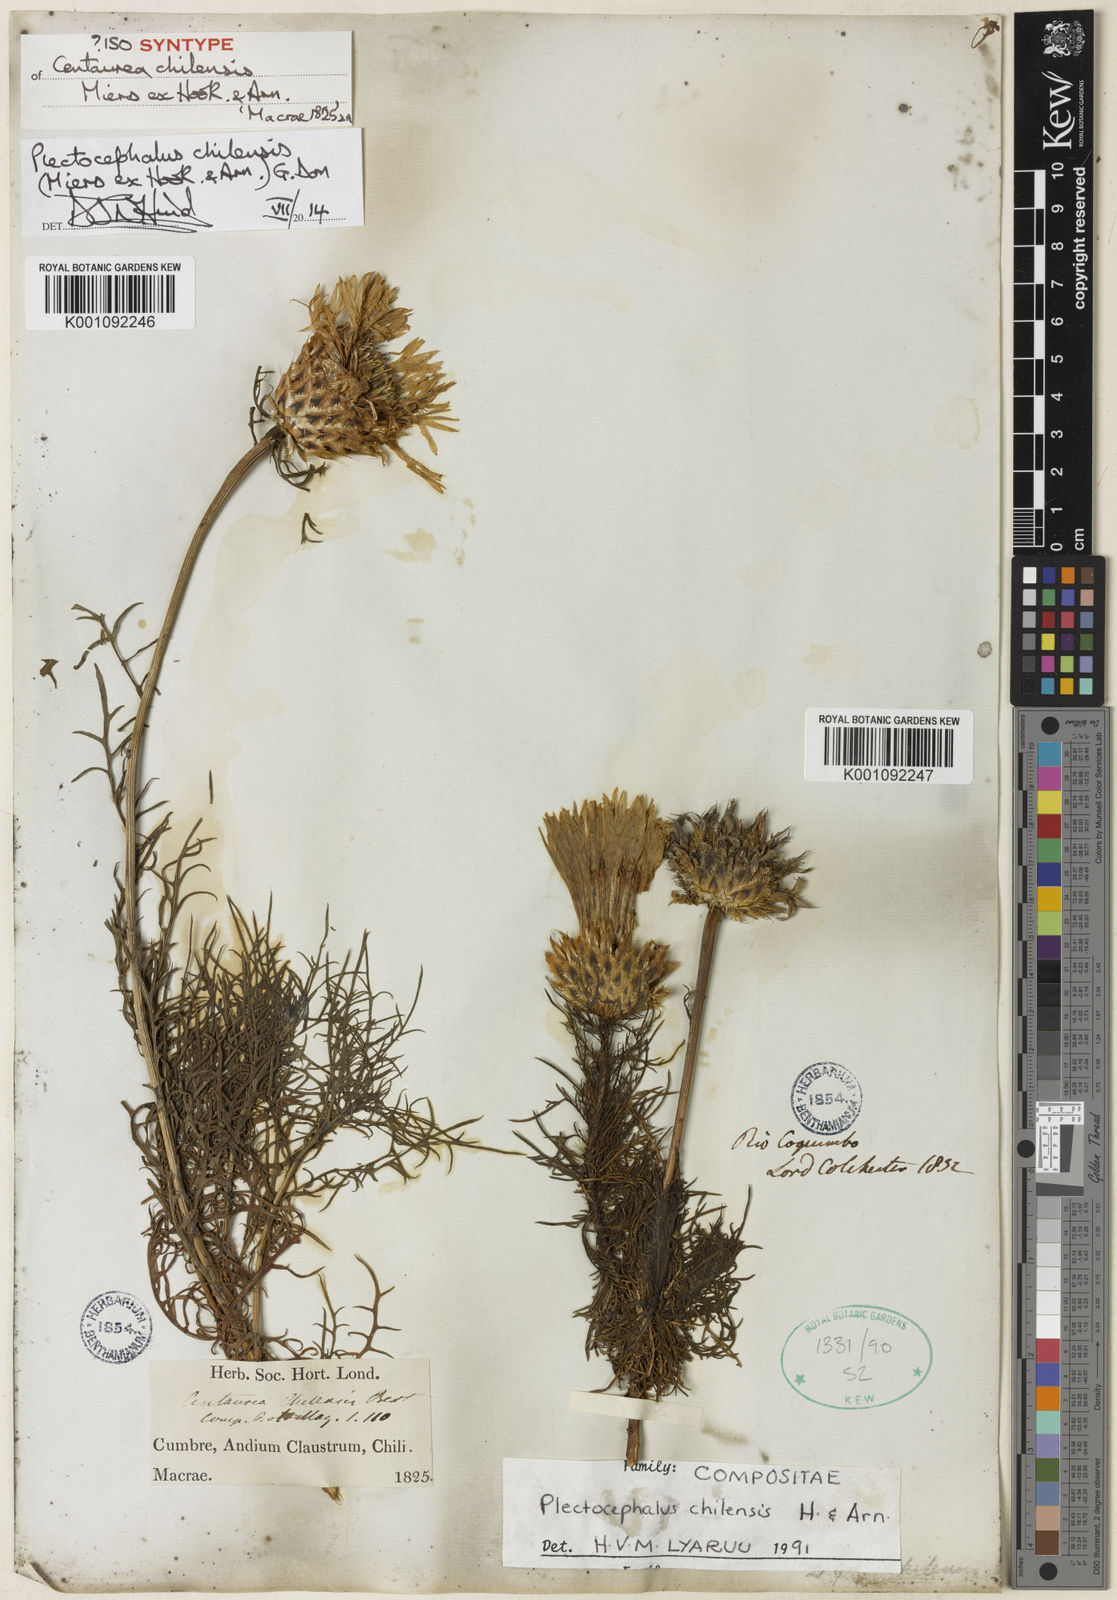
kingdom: Plantae
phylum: Tracheophyta
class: Magnoliopsida
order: Asterales
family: Asteraceae
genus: Plectocephalus
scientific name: Plectocephalus chilensis
